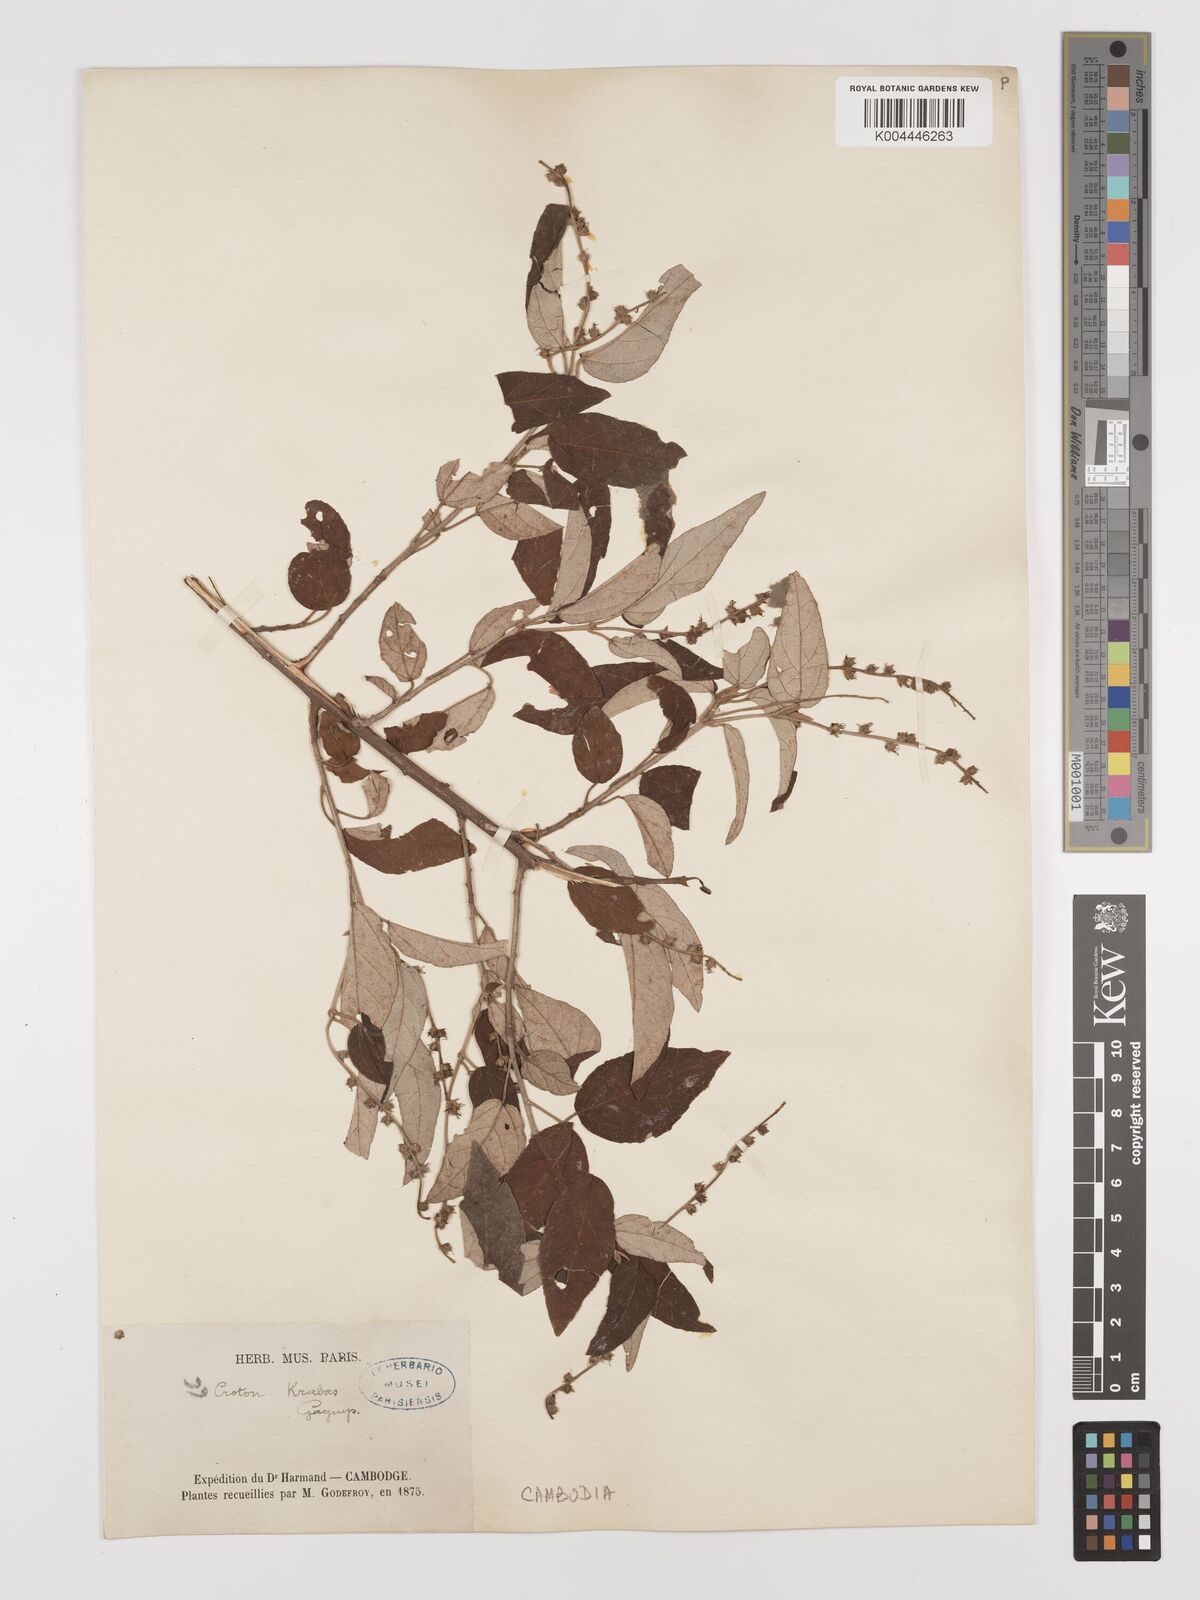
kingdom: Plantae
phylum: Tracheophyta
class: Magnoliopsida
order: Malpighiales
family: Euphorbiaceae
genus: Croton
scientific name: Croton krabas
